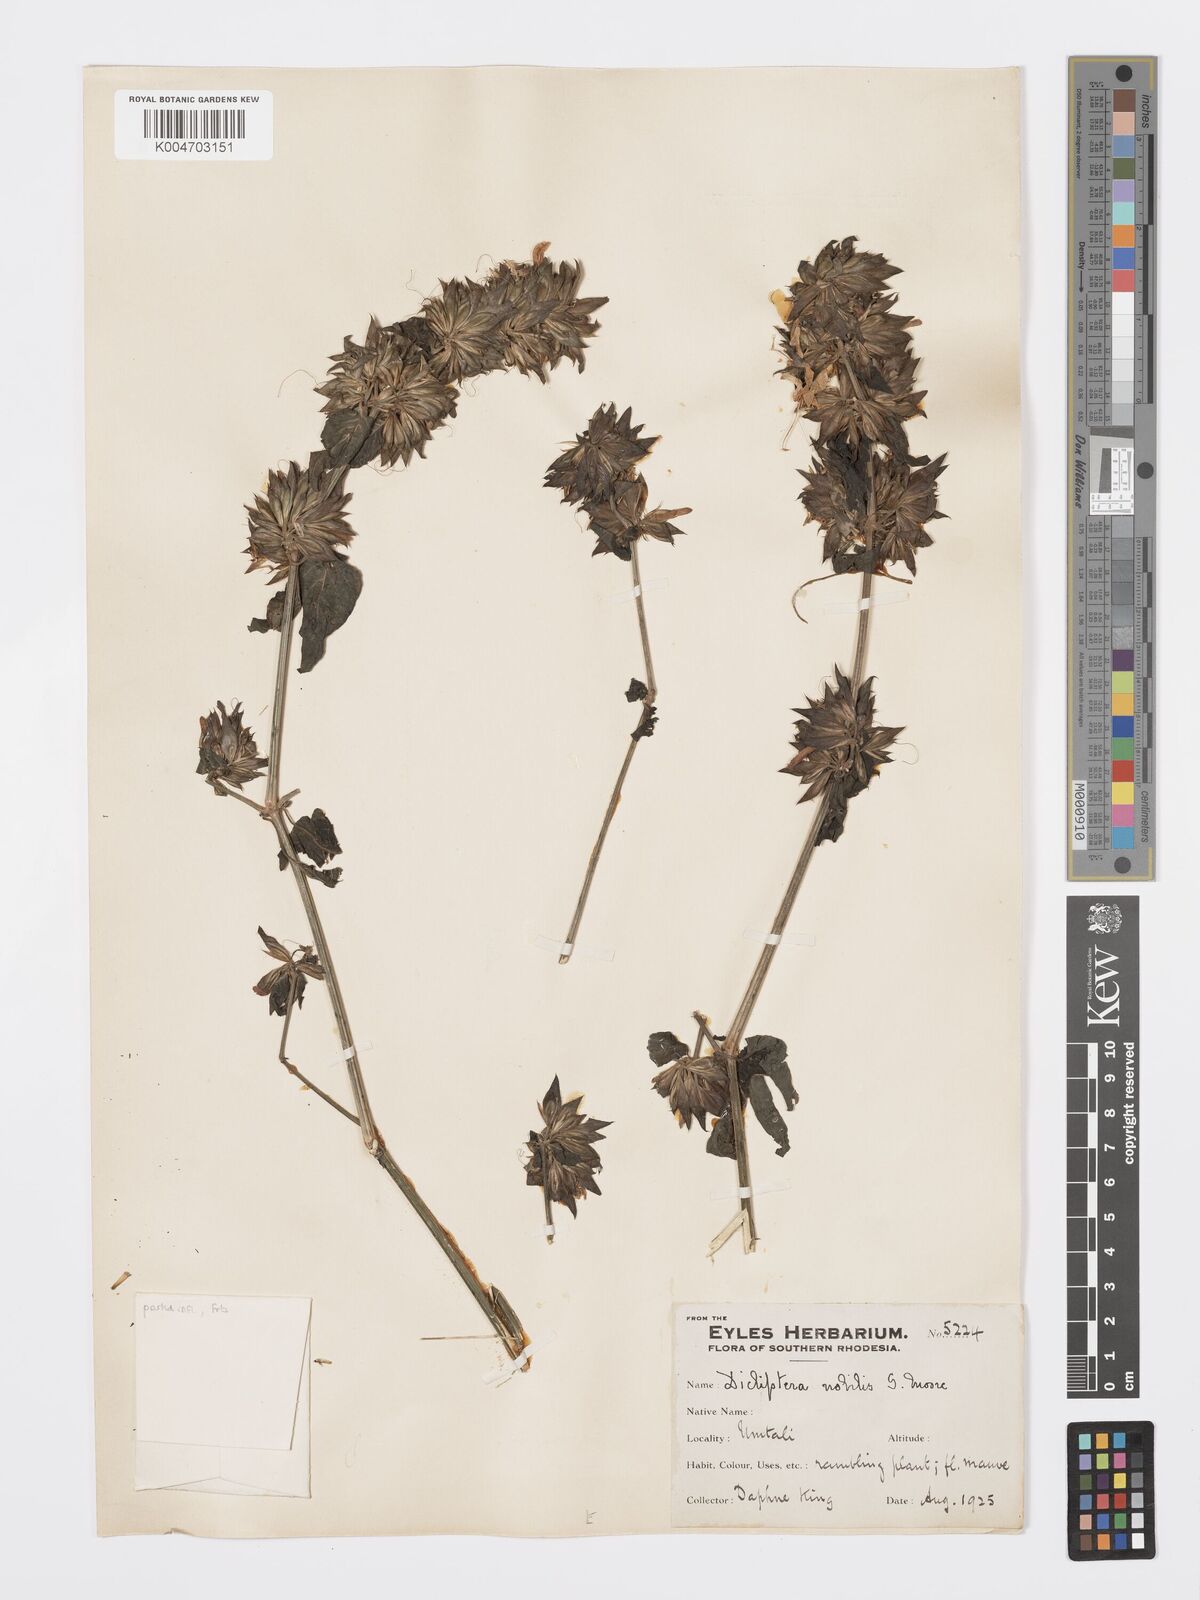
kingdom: Plantae
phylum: Tracheophyta
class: Magnoliopsida
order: Lamiales
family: Acanthaceae
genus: Dicliptera
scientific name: Dicliptera clinopodia
